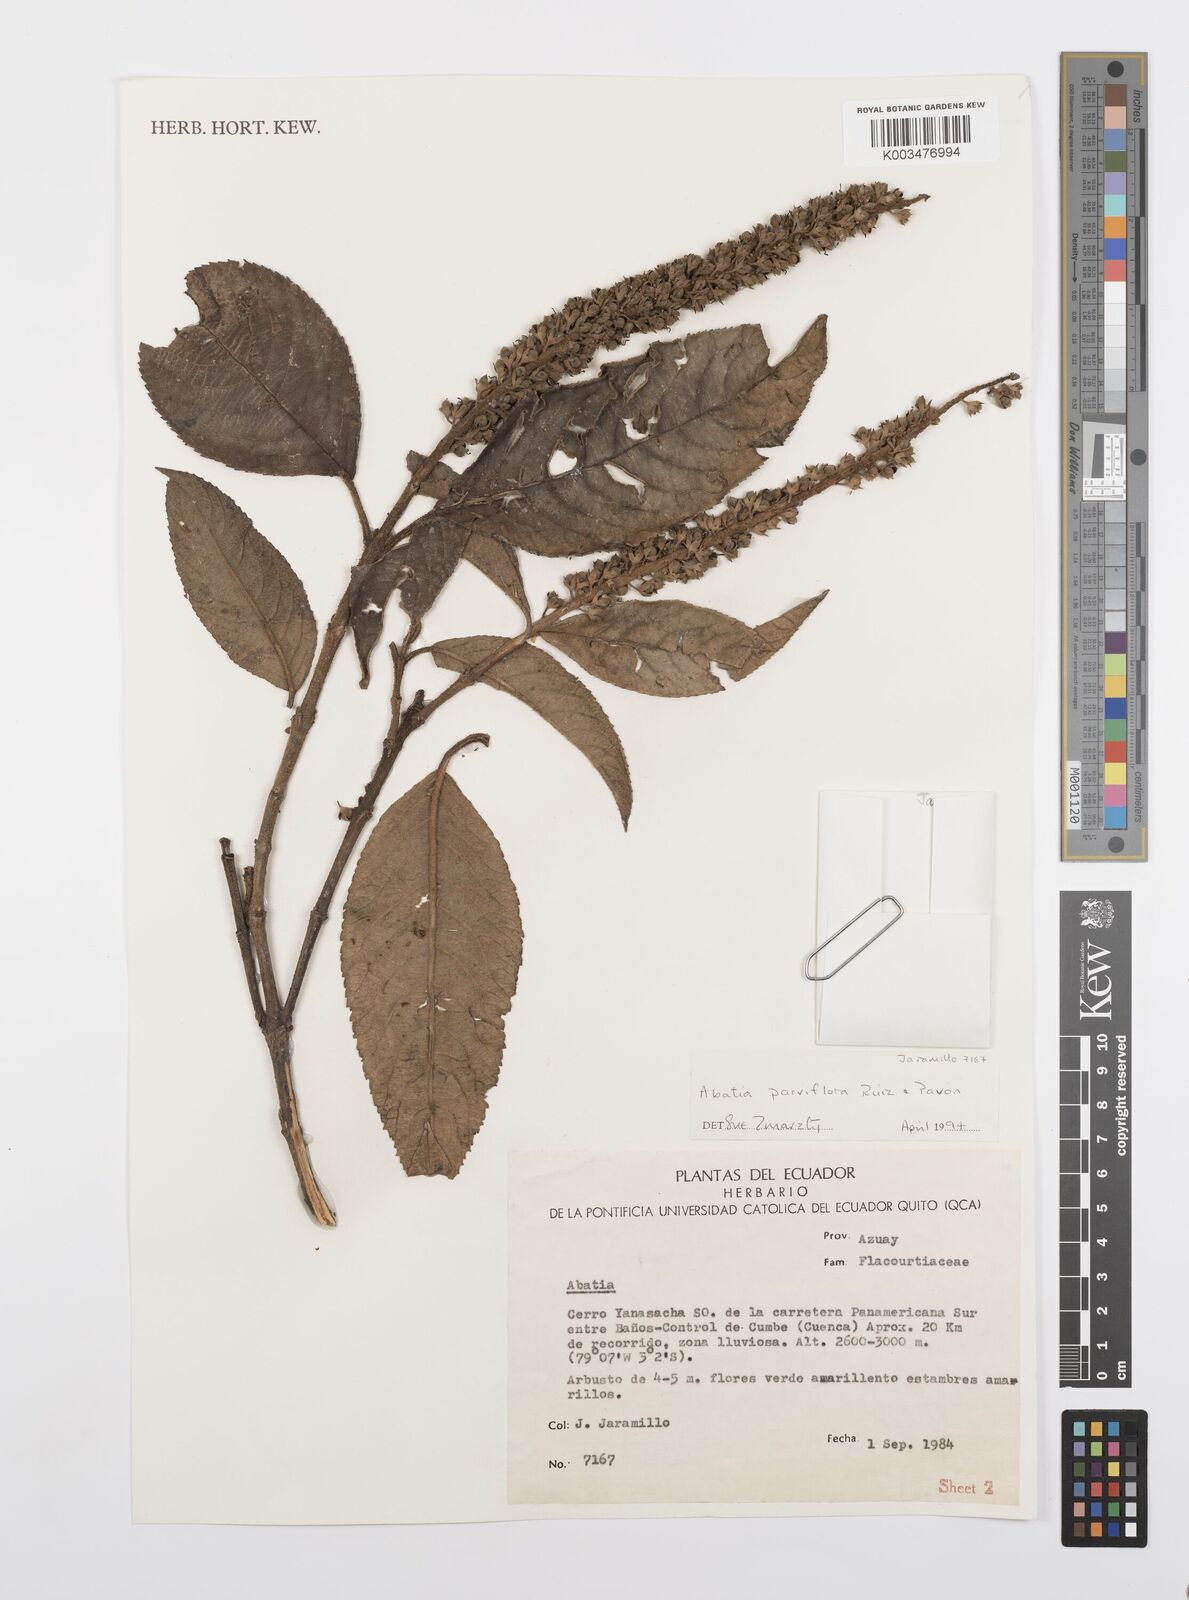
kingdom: Plantae
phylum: Tracheophyta
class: Magnoliopsida
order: Malpighiales
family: Salicaceae
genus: Abatia
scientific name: Abatia parviflora
